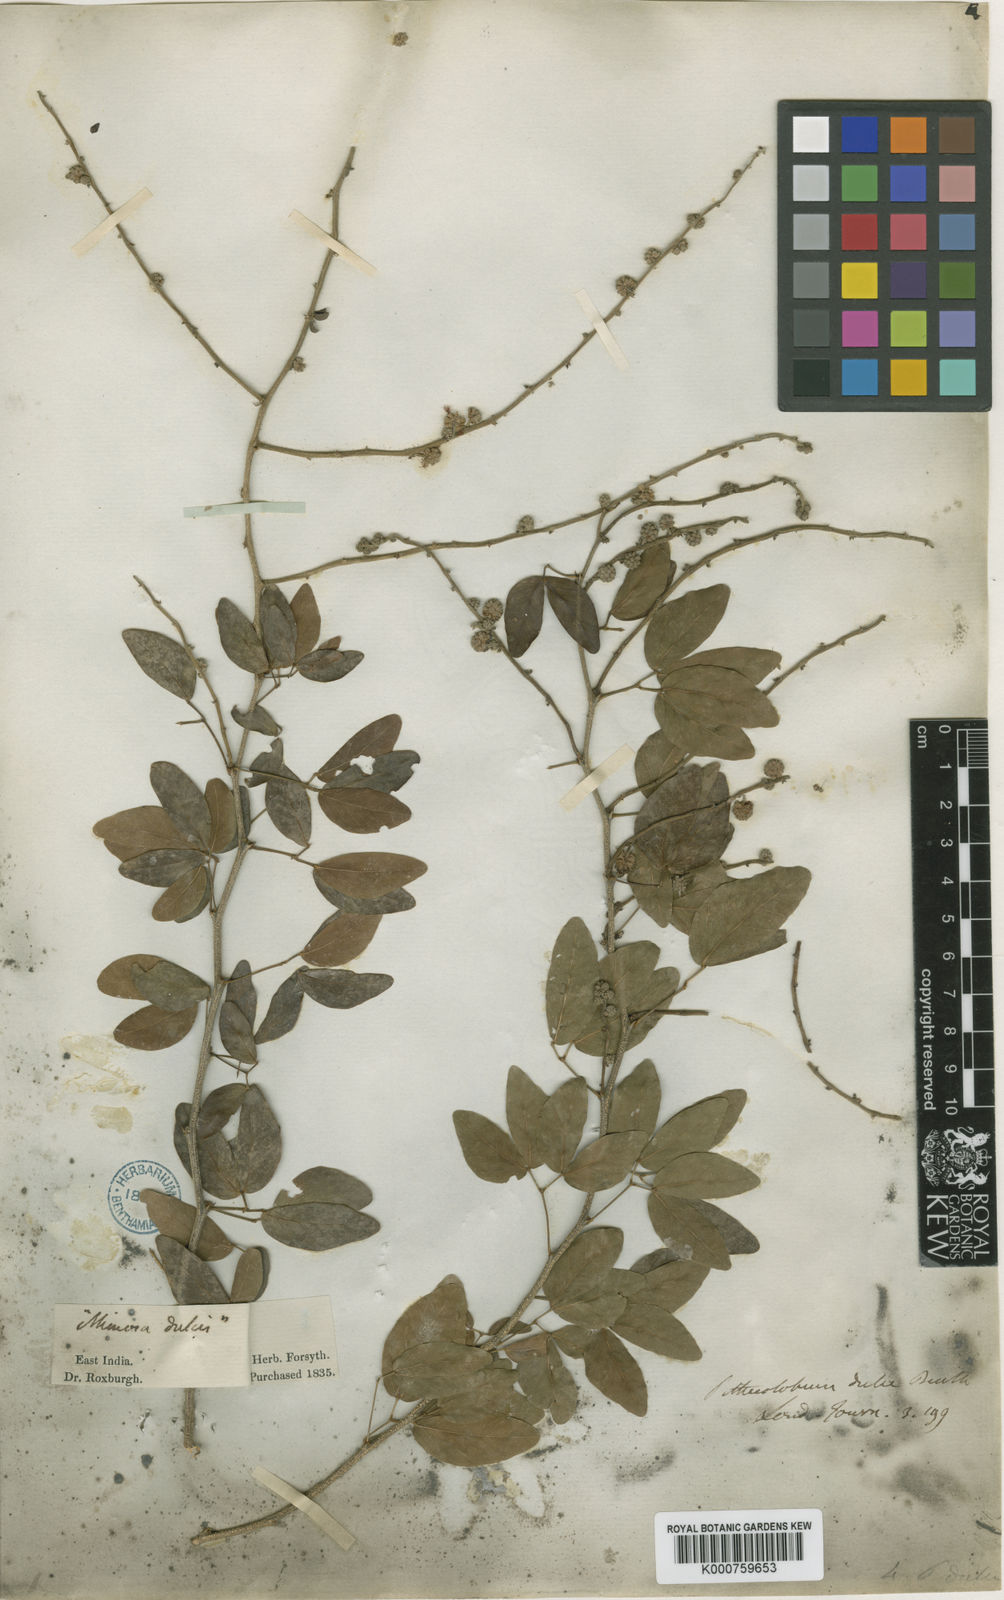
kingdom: Plantae
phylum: Tracheophyta
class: Magnoliopsida
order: Fabales
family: Fabaceae
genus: Pithecellobium
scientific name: Pithecellobium dulce
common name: Monkeypod
